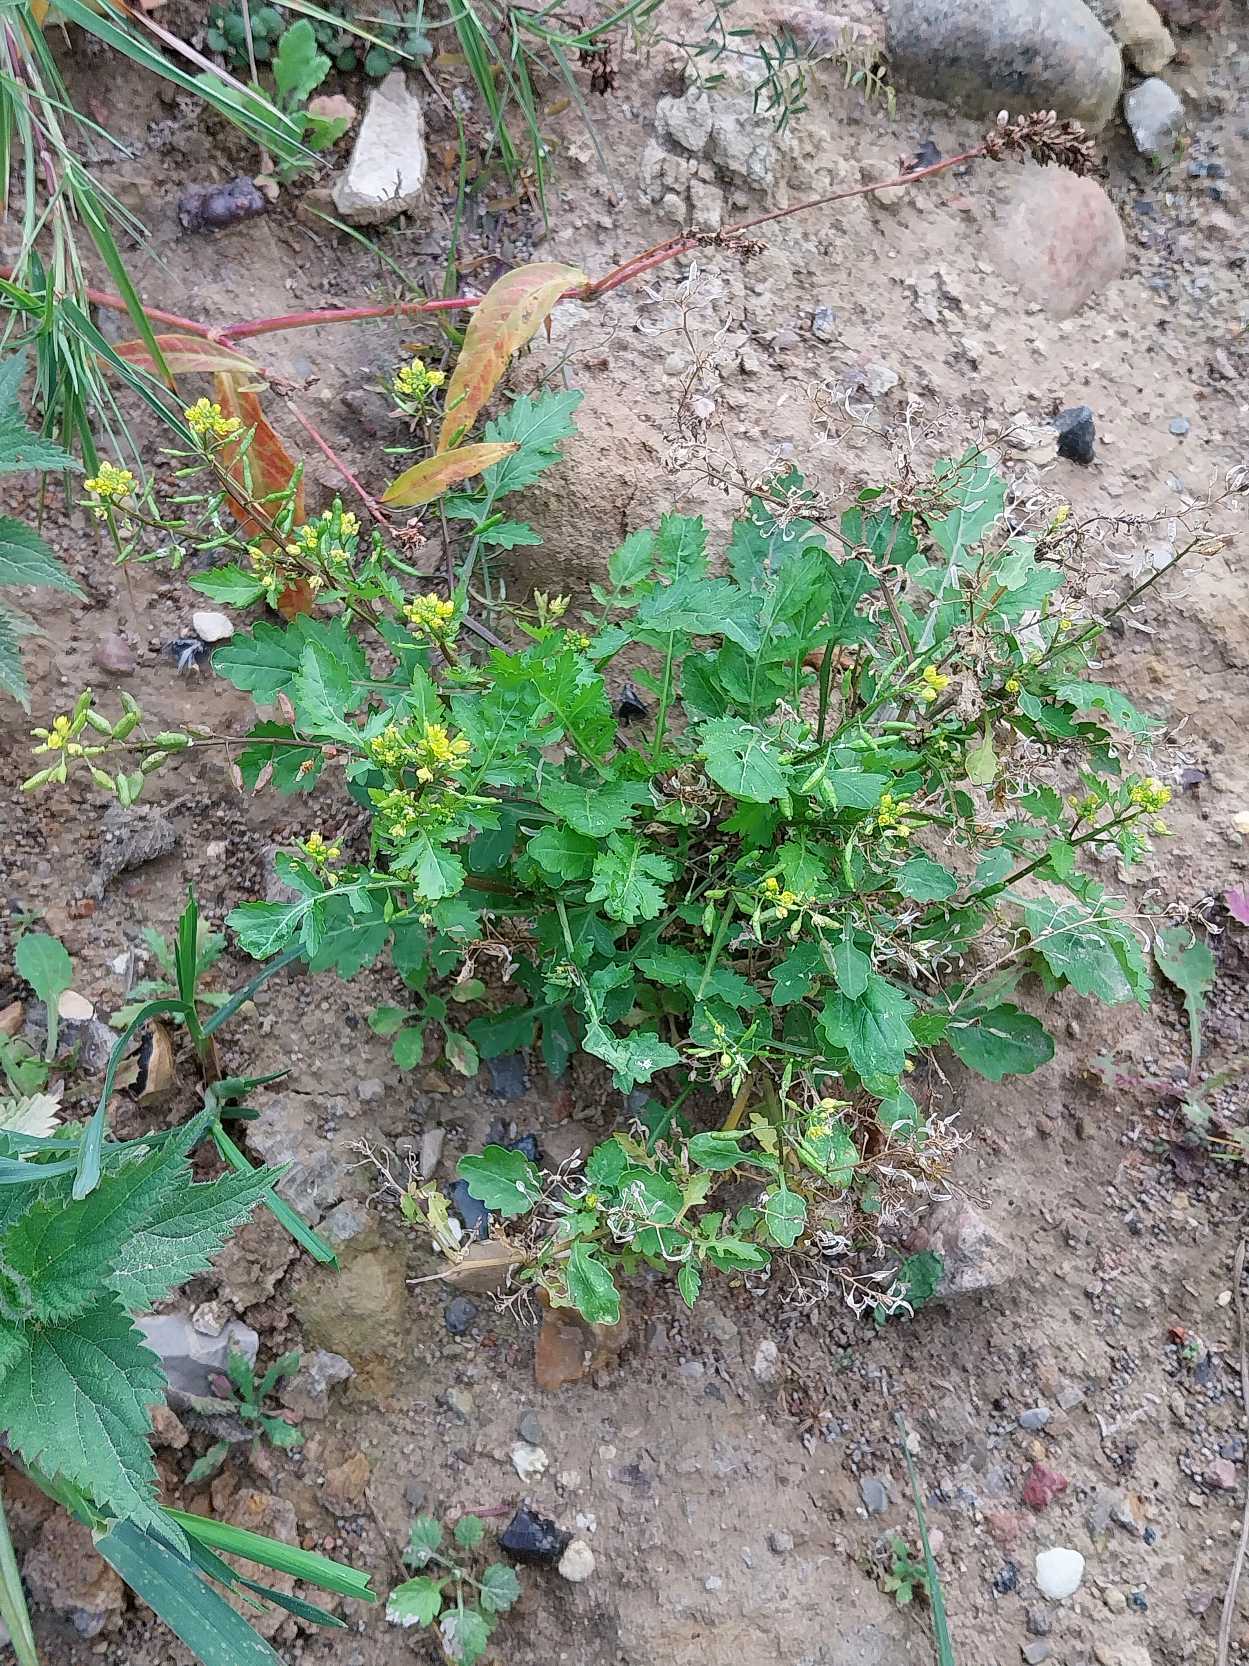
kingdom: Plantae
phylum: Tracheophyta
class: Magnoliopsida
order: Brassicales
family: Brassicaceae
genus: Rorippa
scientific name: Rorippa palustris
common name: Kær-guldkarse
